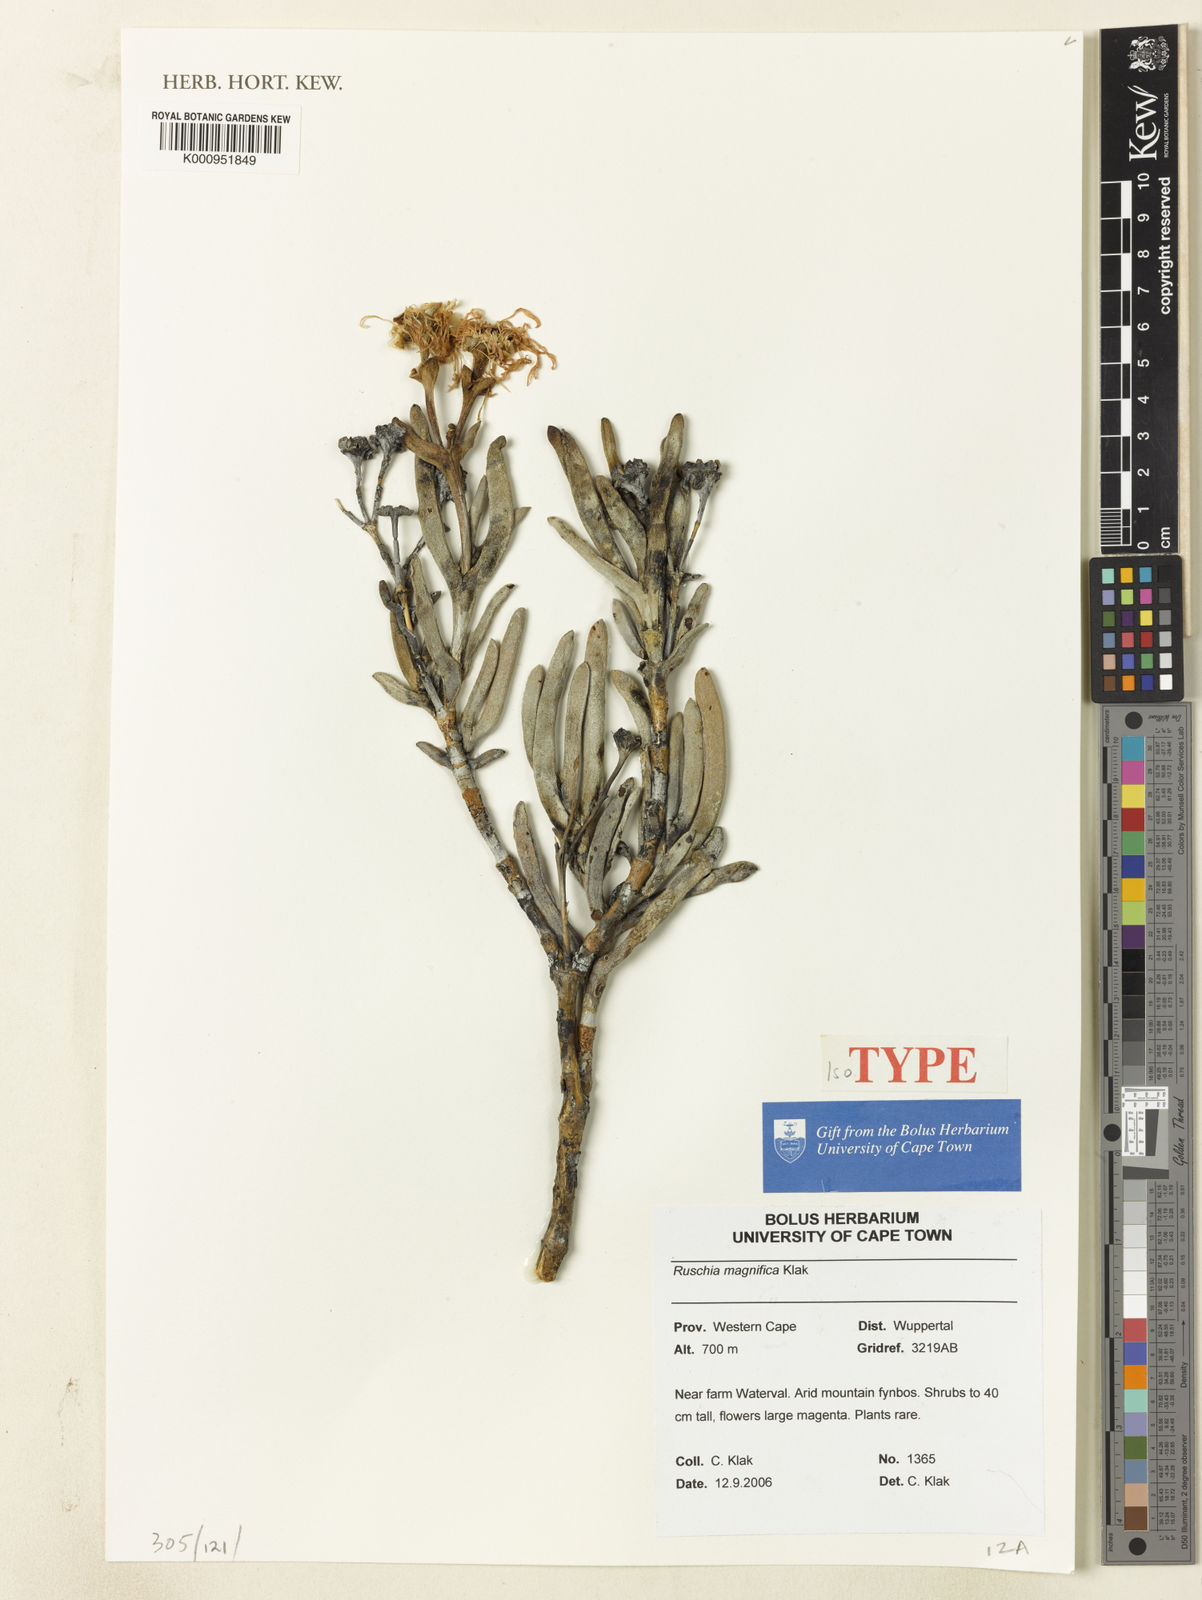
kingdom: Plantae
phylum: Tracheophyta
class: Magnoliopsida
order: Caryophyllales
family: Aizoaceae
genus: Ruschia
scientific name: Ruschia magnifica
